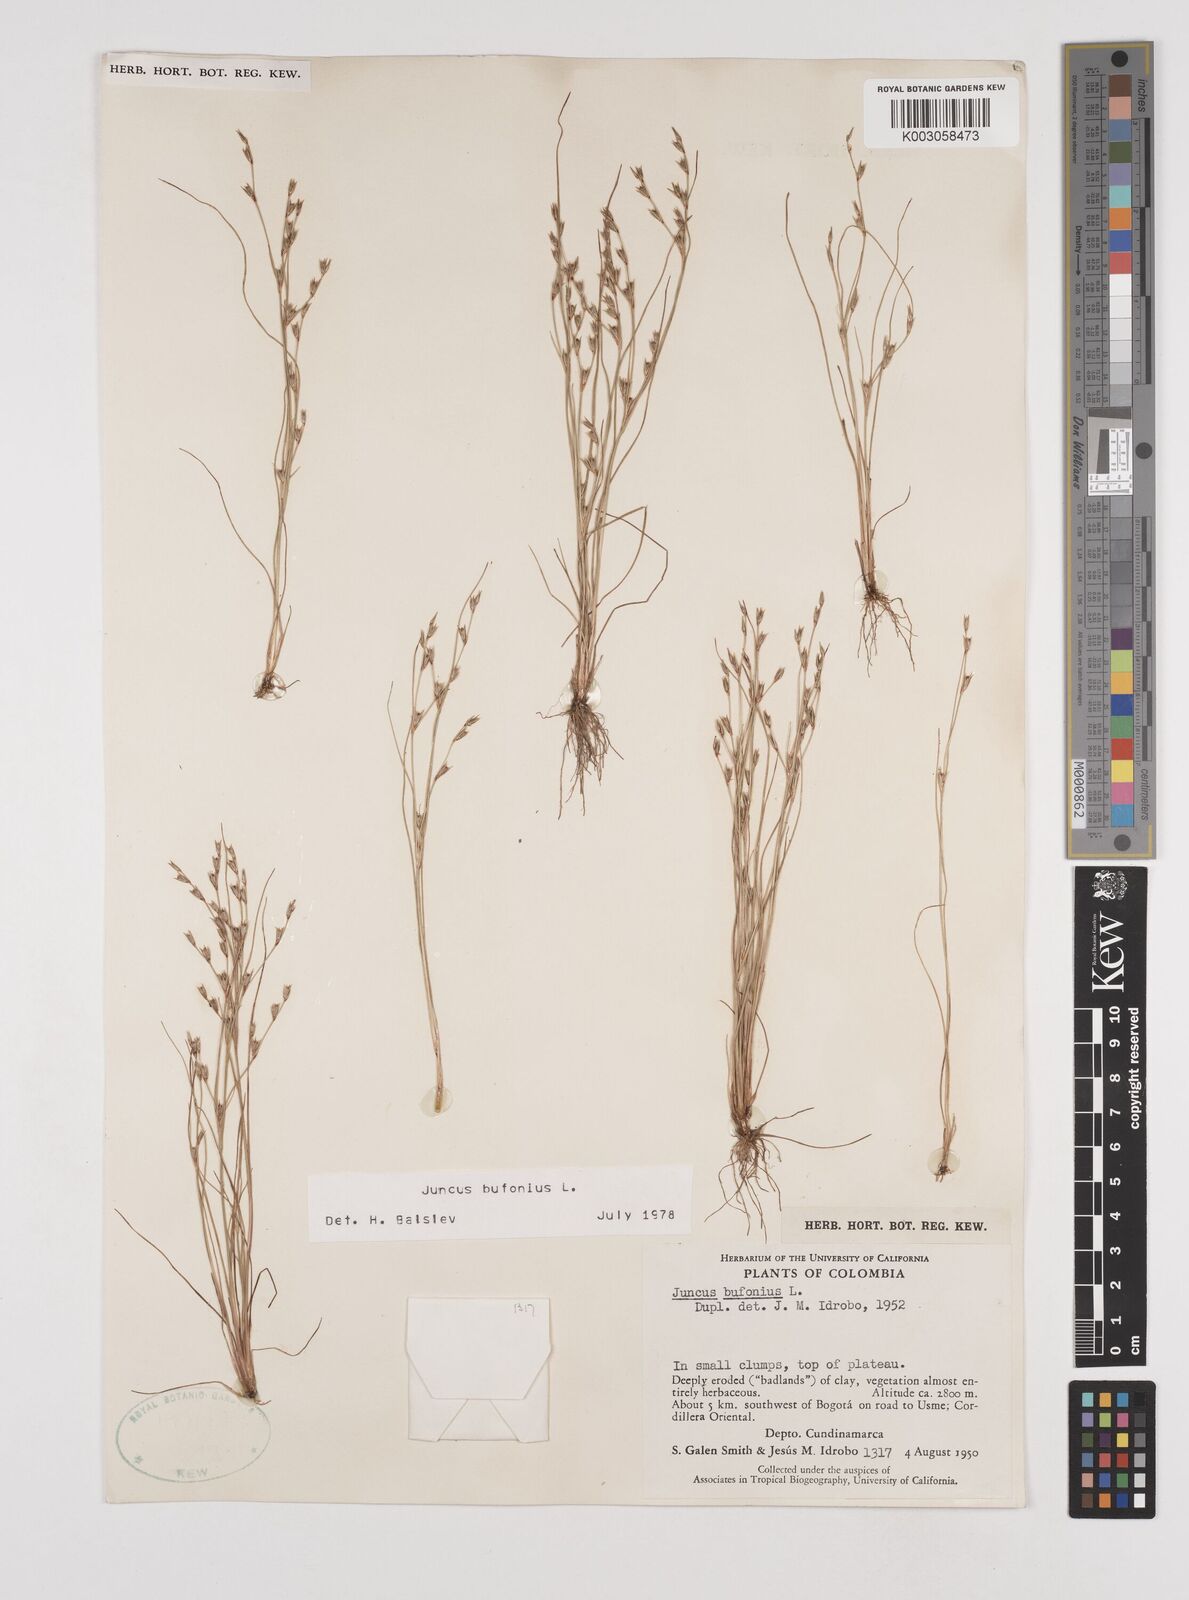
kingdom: Plantae
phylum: Tracheophyta
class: Liliopsida
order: Poales
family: Juncaceae
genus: Juncus
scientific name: Juncus bufonius
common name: Toad rush
